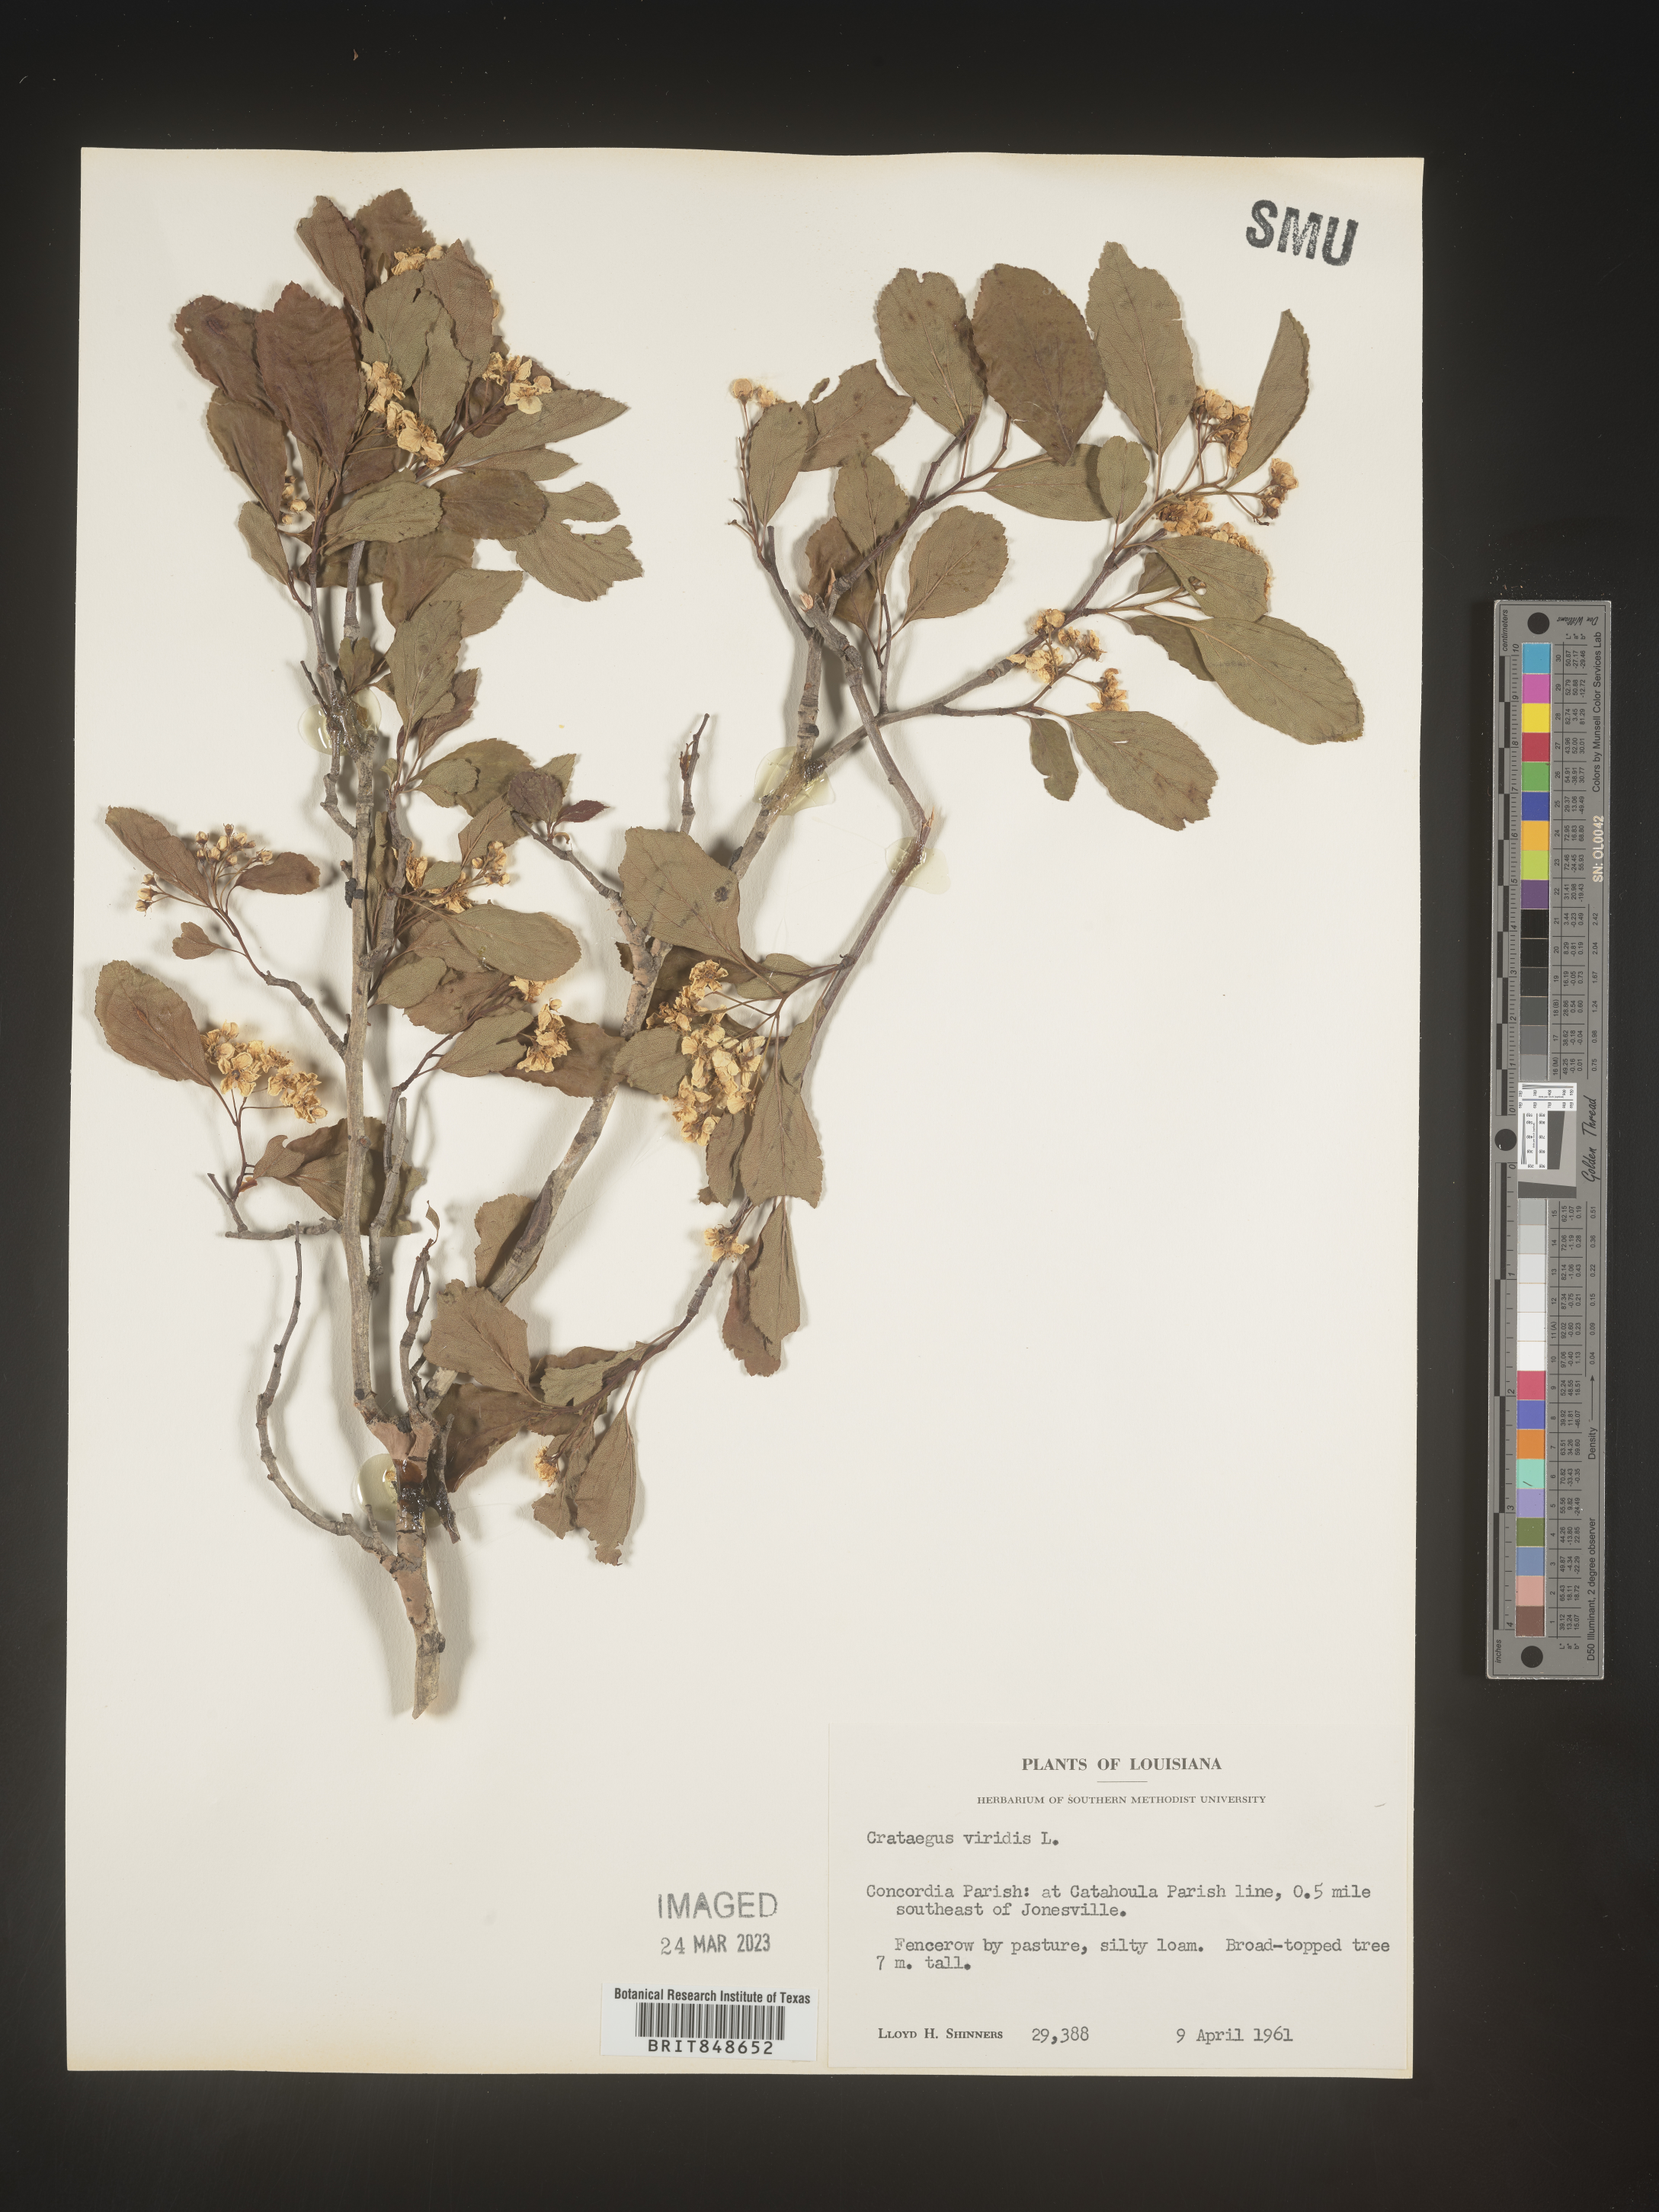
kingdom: Plantae
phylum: Tracheophyta
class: Magnoliopsida
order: Rosales
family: Rosaceae
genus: Crataegus
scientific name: Crataegus viridis
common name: Southernthorn
